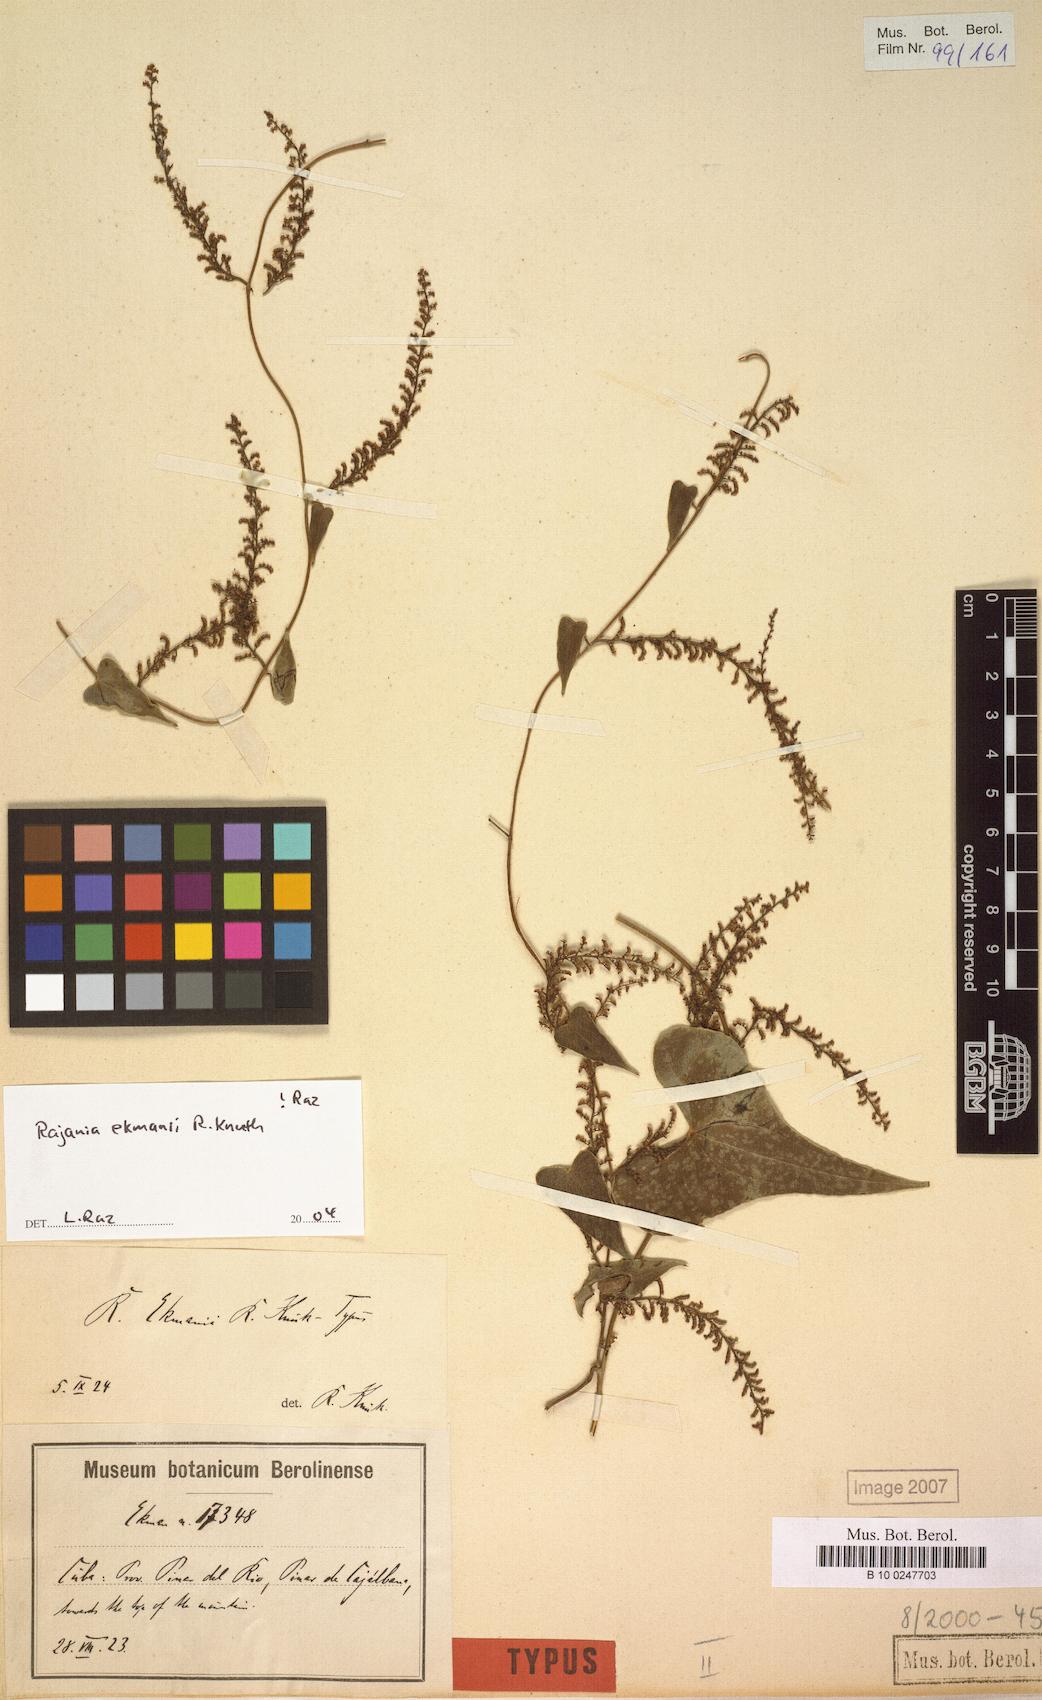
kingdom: Plantae
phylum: Tracheophyta
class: Liliopsida
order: Dioscoreales
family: Dioscoreaceae
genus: Dioscorea
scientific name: Dioscorea scorpioidea
